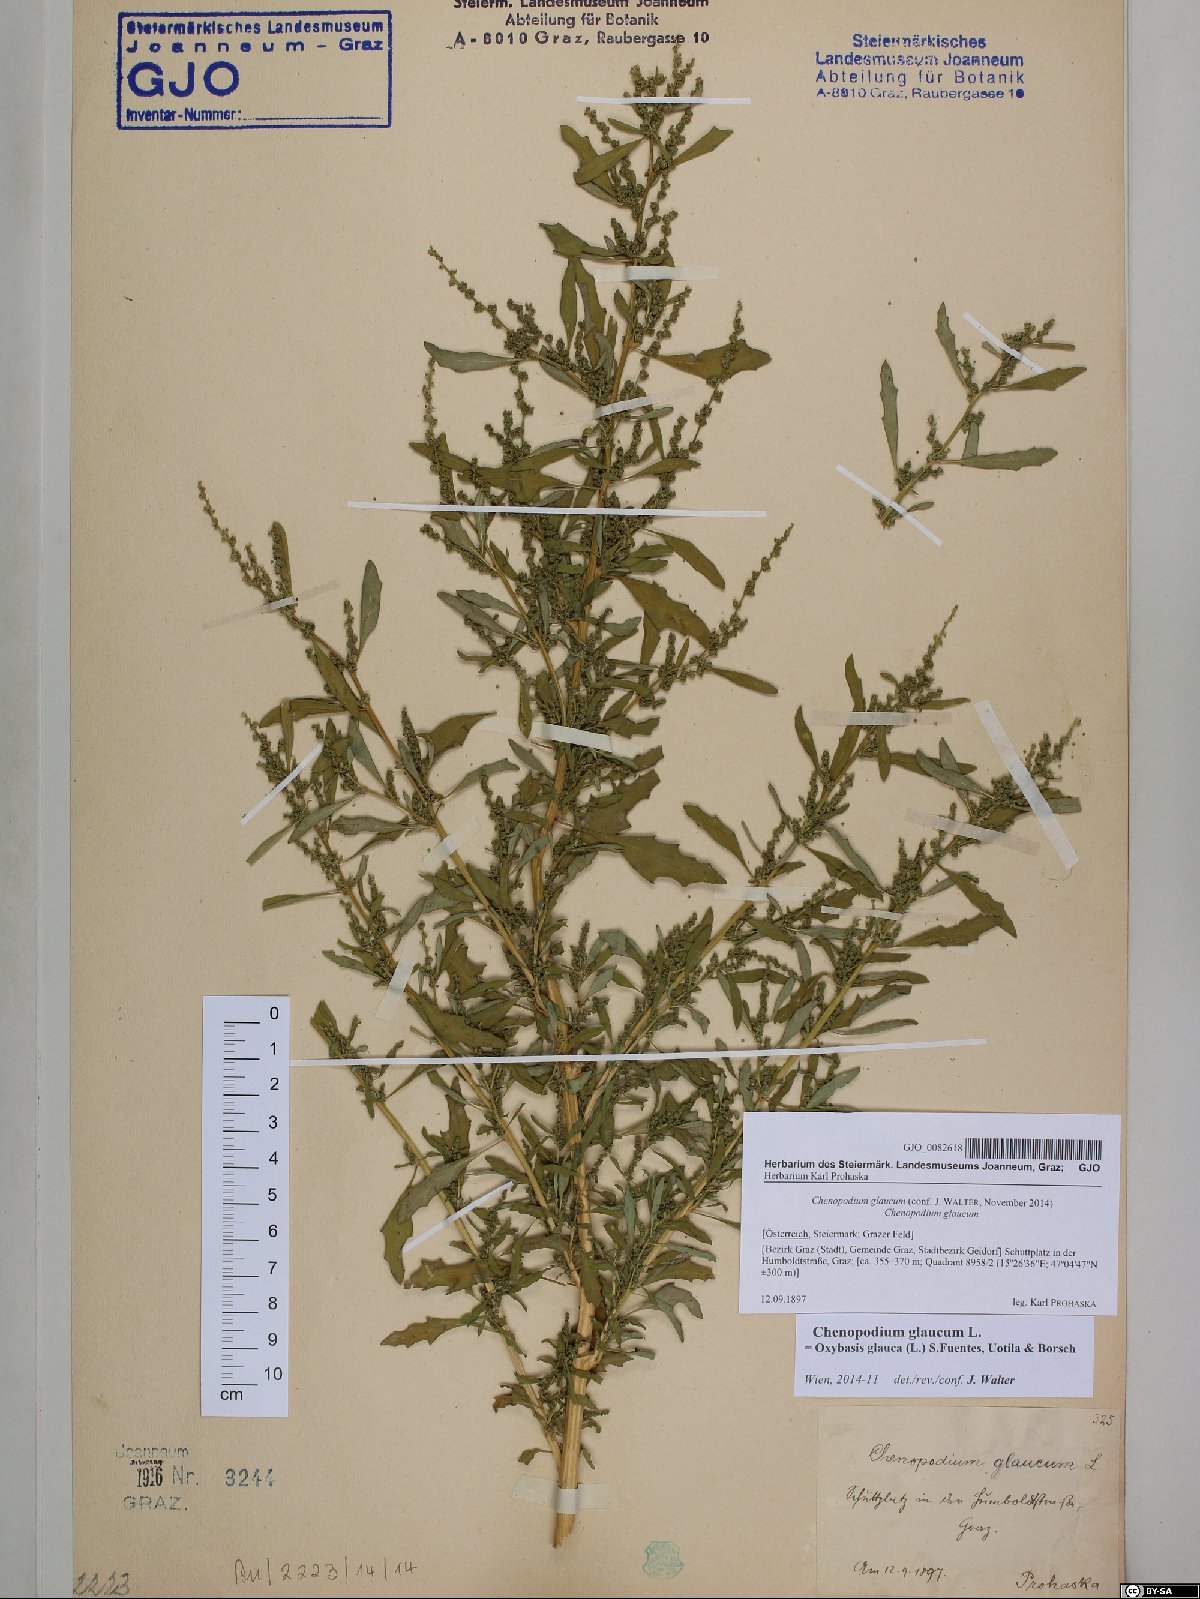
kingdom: Plantae
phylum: Tracheophyta
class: Magnoliopsida
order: Caryophyllales
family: Amaranthaceae
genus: Oxybasis
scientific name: Oxybasis glauca
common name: Glaucous goosefoot
